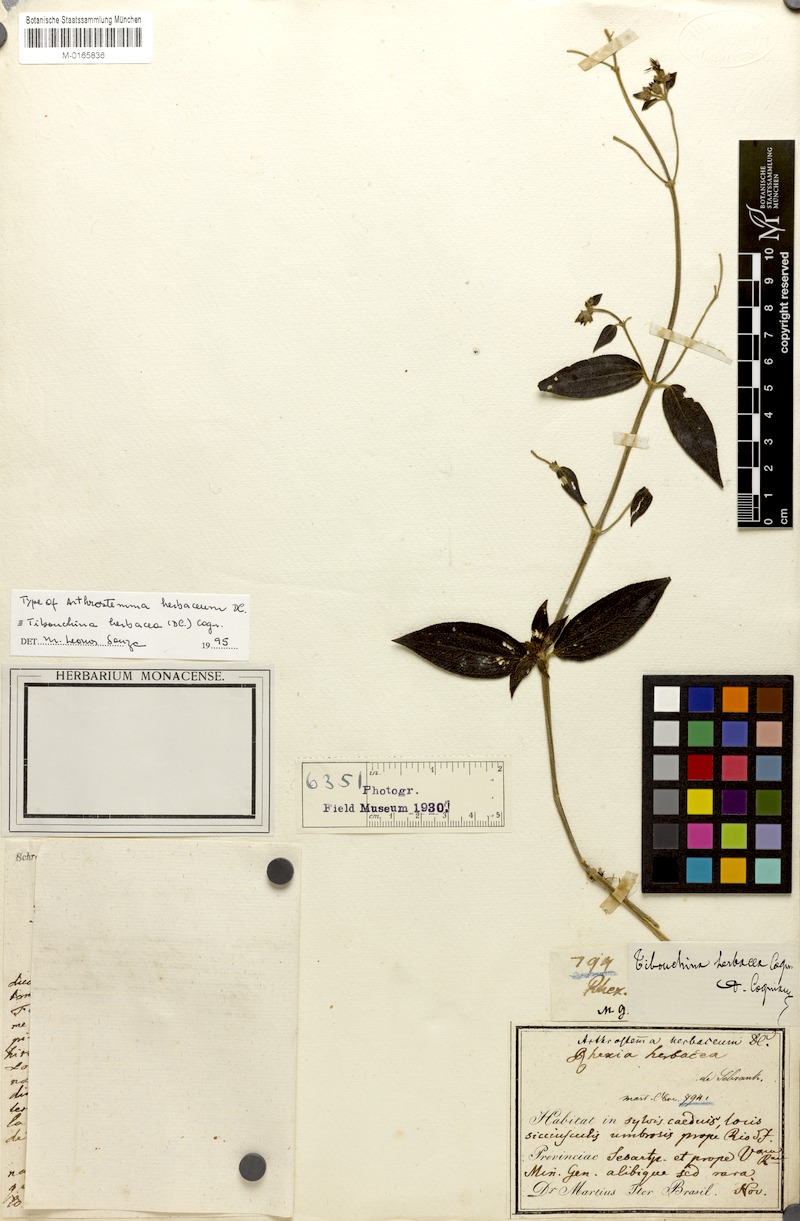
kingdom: Plantae
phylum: Tracheophyta
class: Magnoliopsida
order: Myrtales
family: Melastomataceae
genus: Chaetogastra
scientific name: Chaetogastra herbacea
